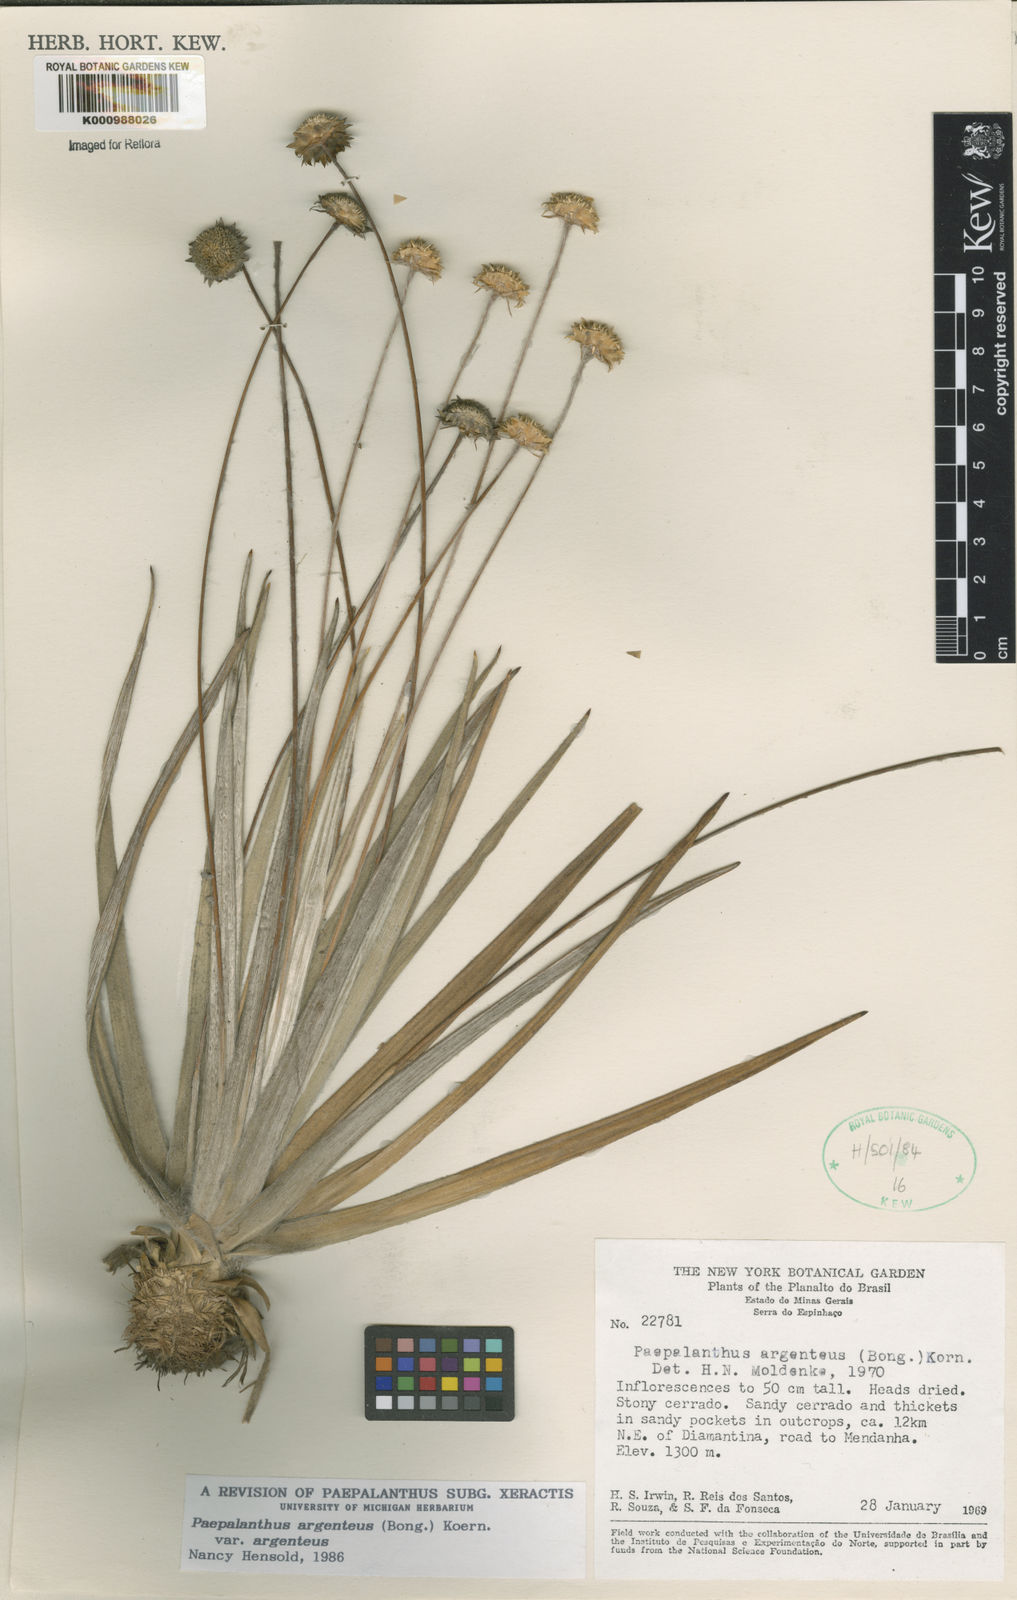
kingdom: Plantae
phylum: Tracheophyta
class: Liliopsida
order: Poales
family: Eriocaulaceae
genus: Paepalanthus
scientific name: Paepalanthus
